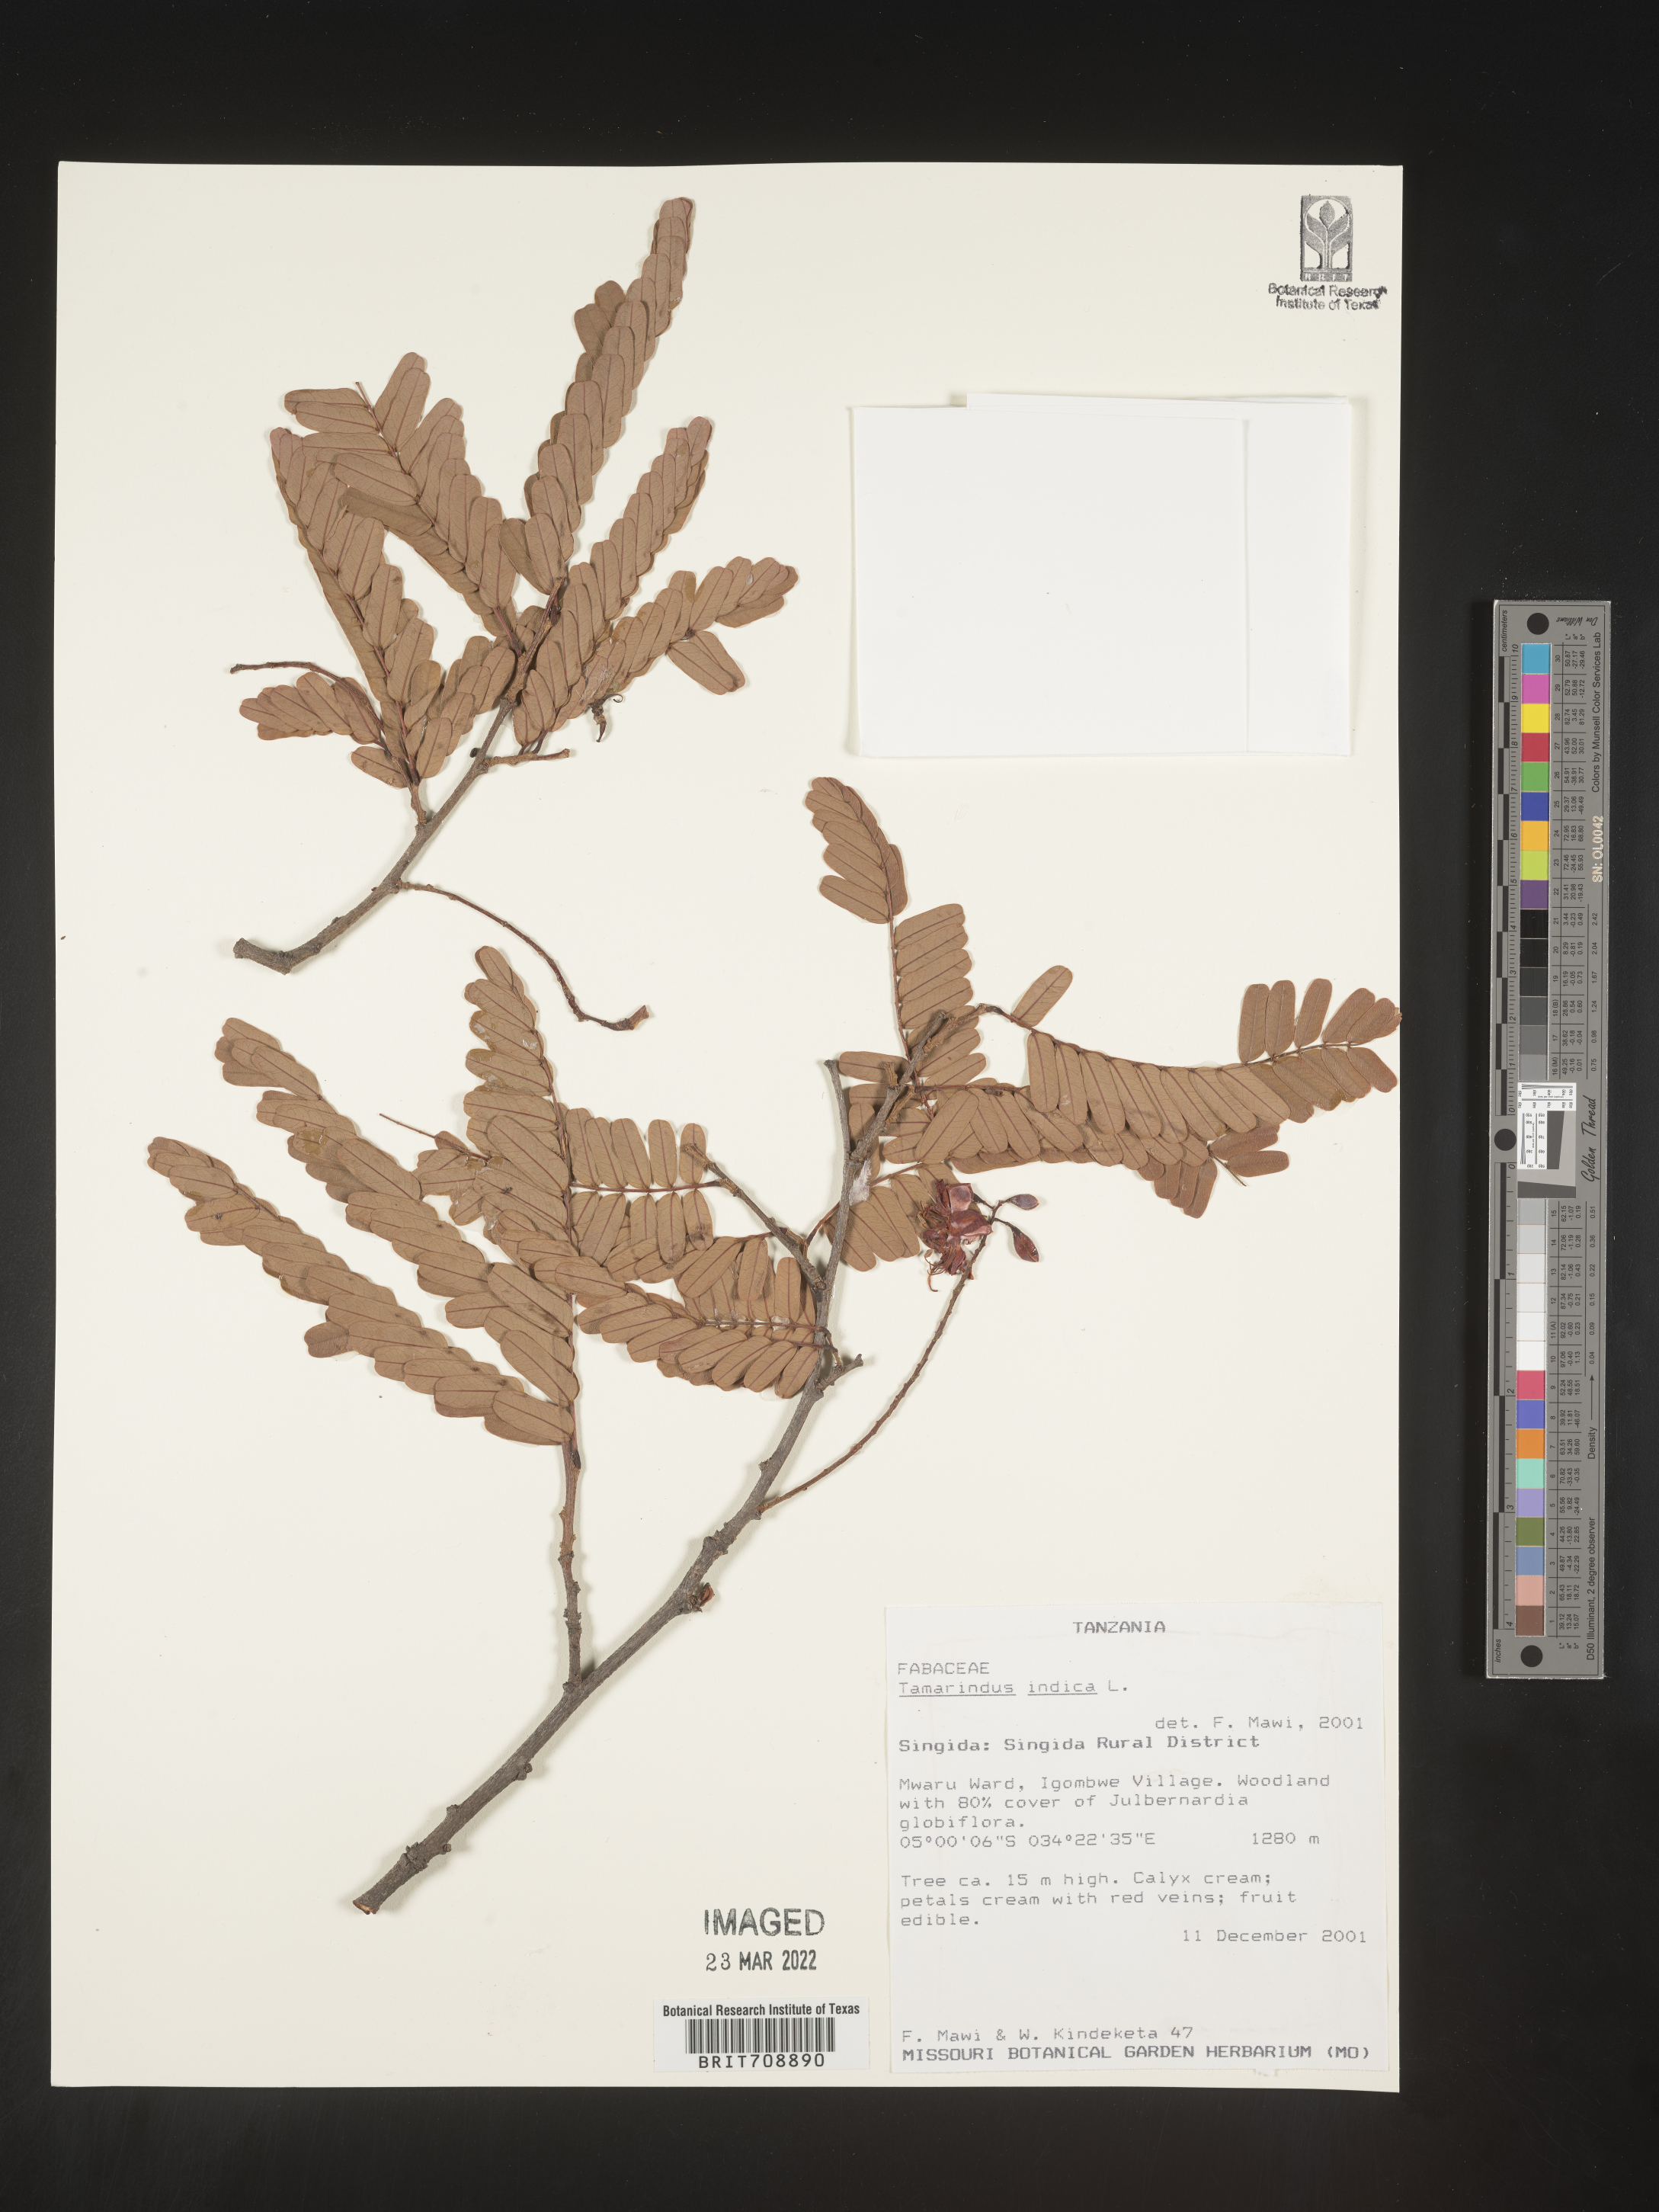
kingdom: Plantae
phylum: Tracheophyta
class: Magnoliopsida
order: Fabales
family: Fabaceae
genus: Tamarindus
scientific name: Tamarindus
